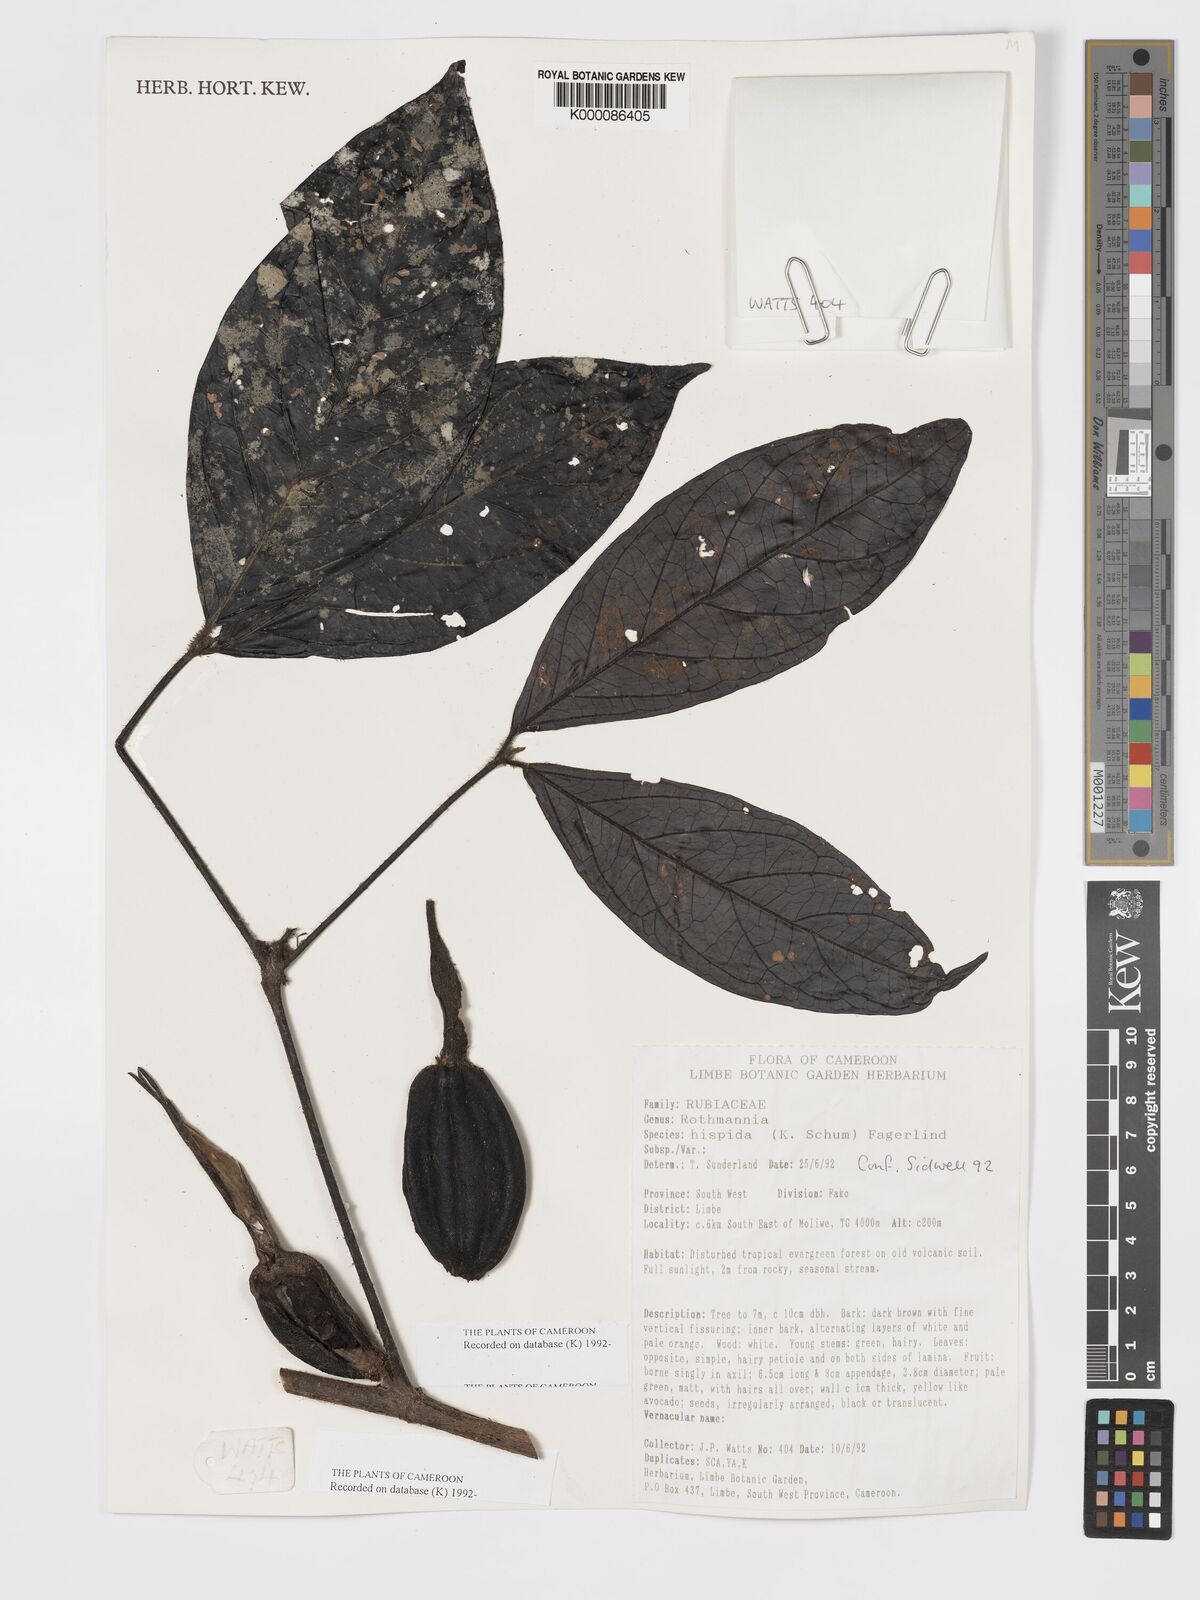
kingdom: Plantae
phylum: Tracheophyta
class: Magnoliopsida
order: Gentianales
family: Rubiaceae
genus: Rothmannia
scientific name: Rothmannia hispida
